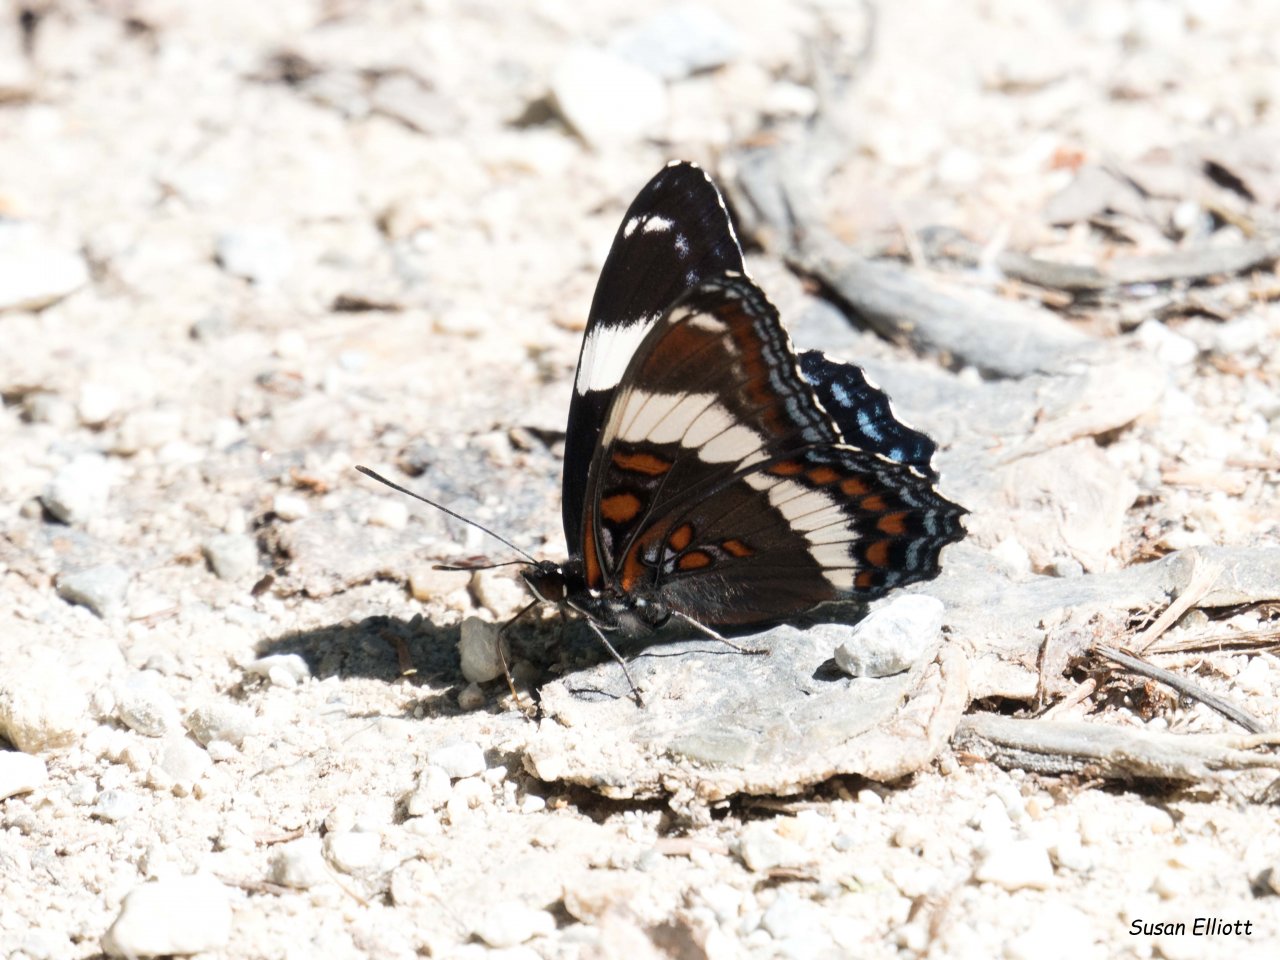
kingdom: Animalia
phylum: Arthropoda
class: Insecta
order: Lepidoptera
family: Nymphalidae
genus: Limenitis
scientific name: Limenitis arthemis
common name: Red-spotted Admiral
